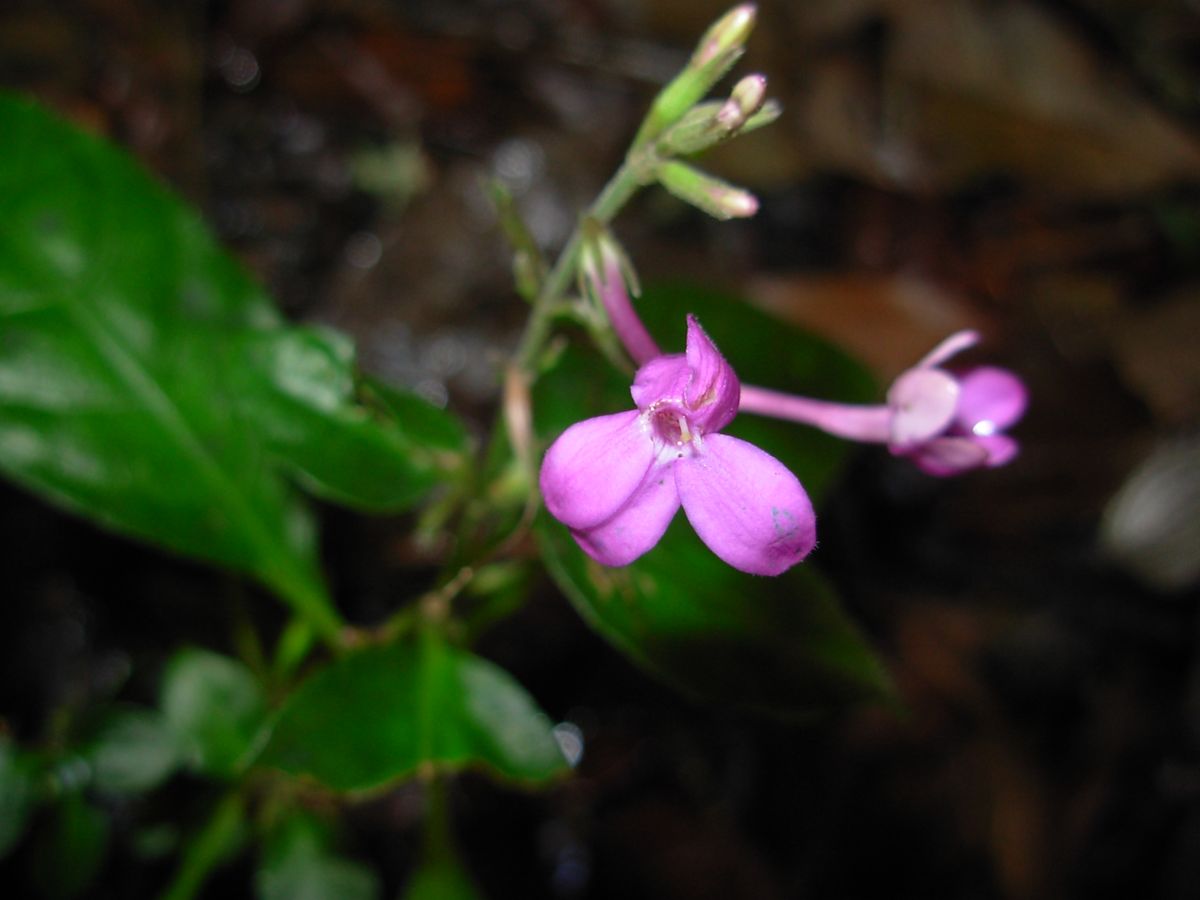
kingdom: Plantae
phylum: Tracheophyta
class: Magnoliopsida
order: Lamiales
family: Acanthaceae
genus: Pseuderanthemum
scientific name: Pseuderanthemum fasciculatum
